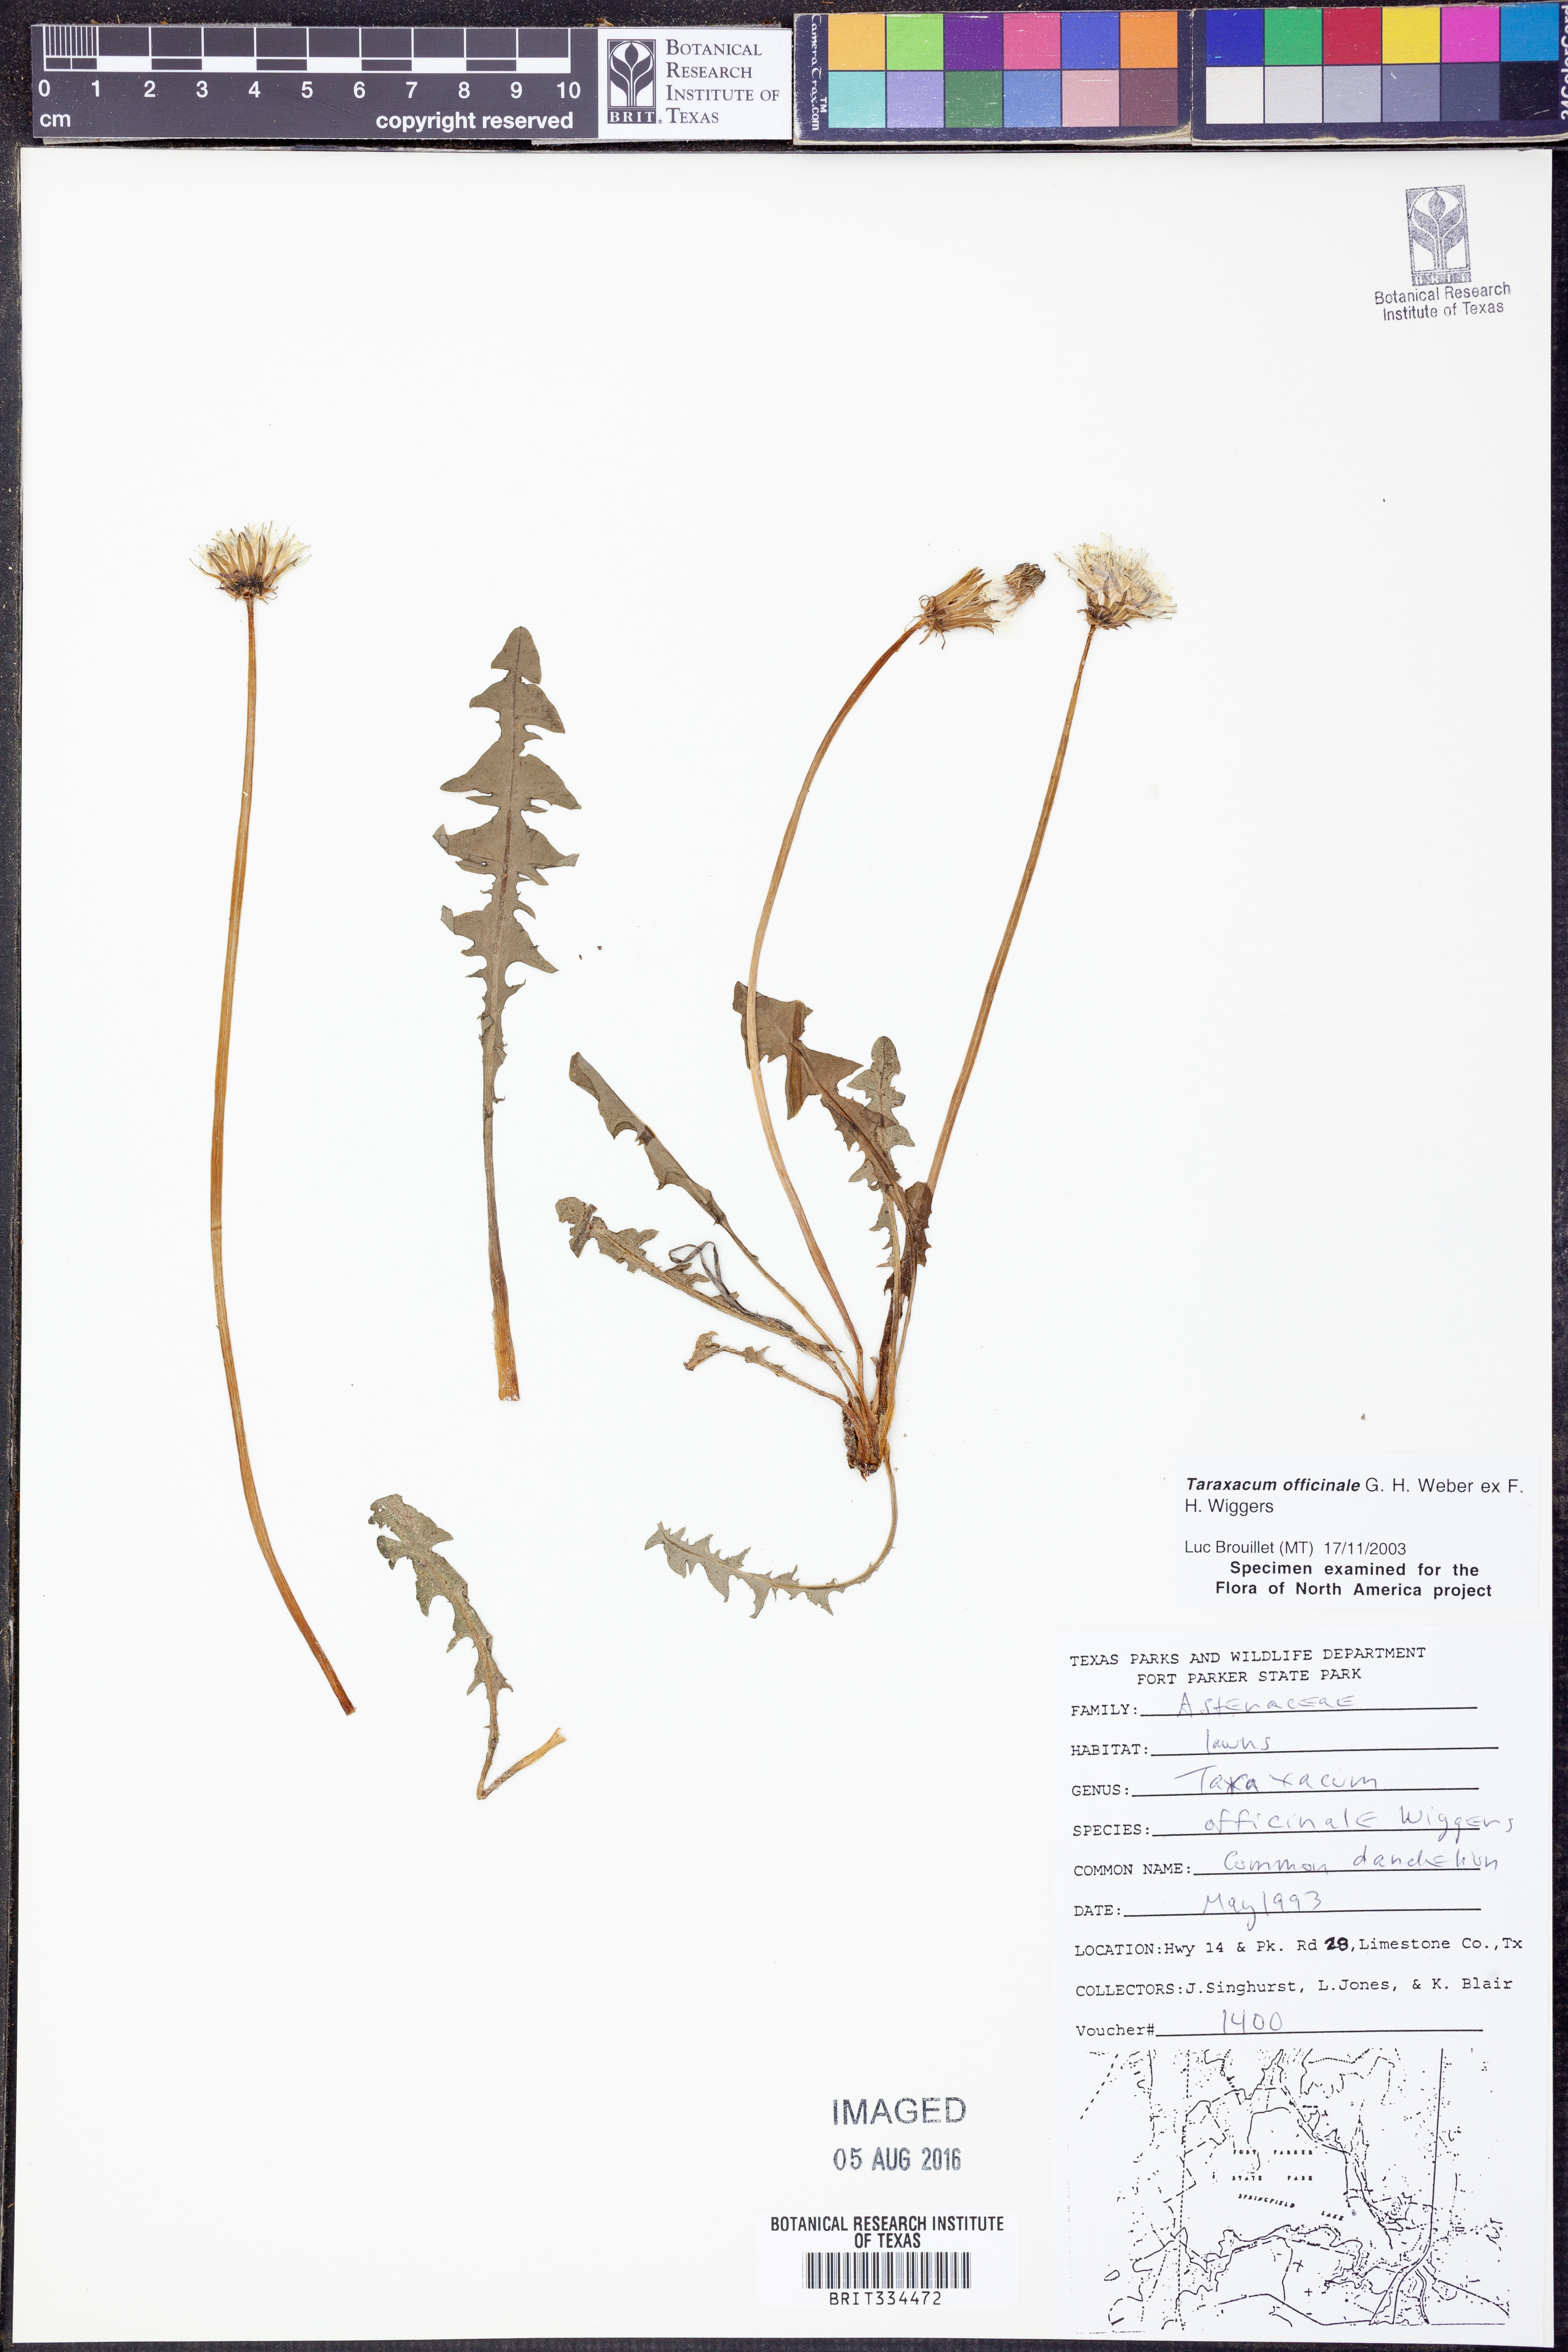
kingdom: Plantae
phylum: Tracheophyta
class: Magnoliopsida
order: Asterales
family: Asteraceae
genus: Taraxacum
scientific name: Taraxacum officinale
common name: Common dandelion
